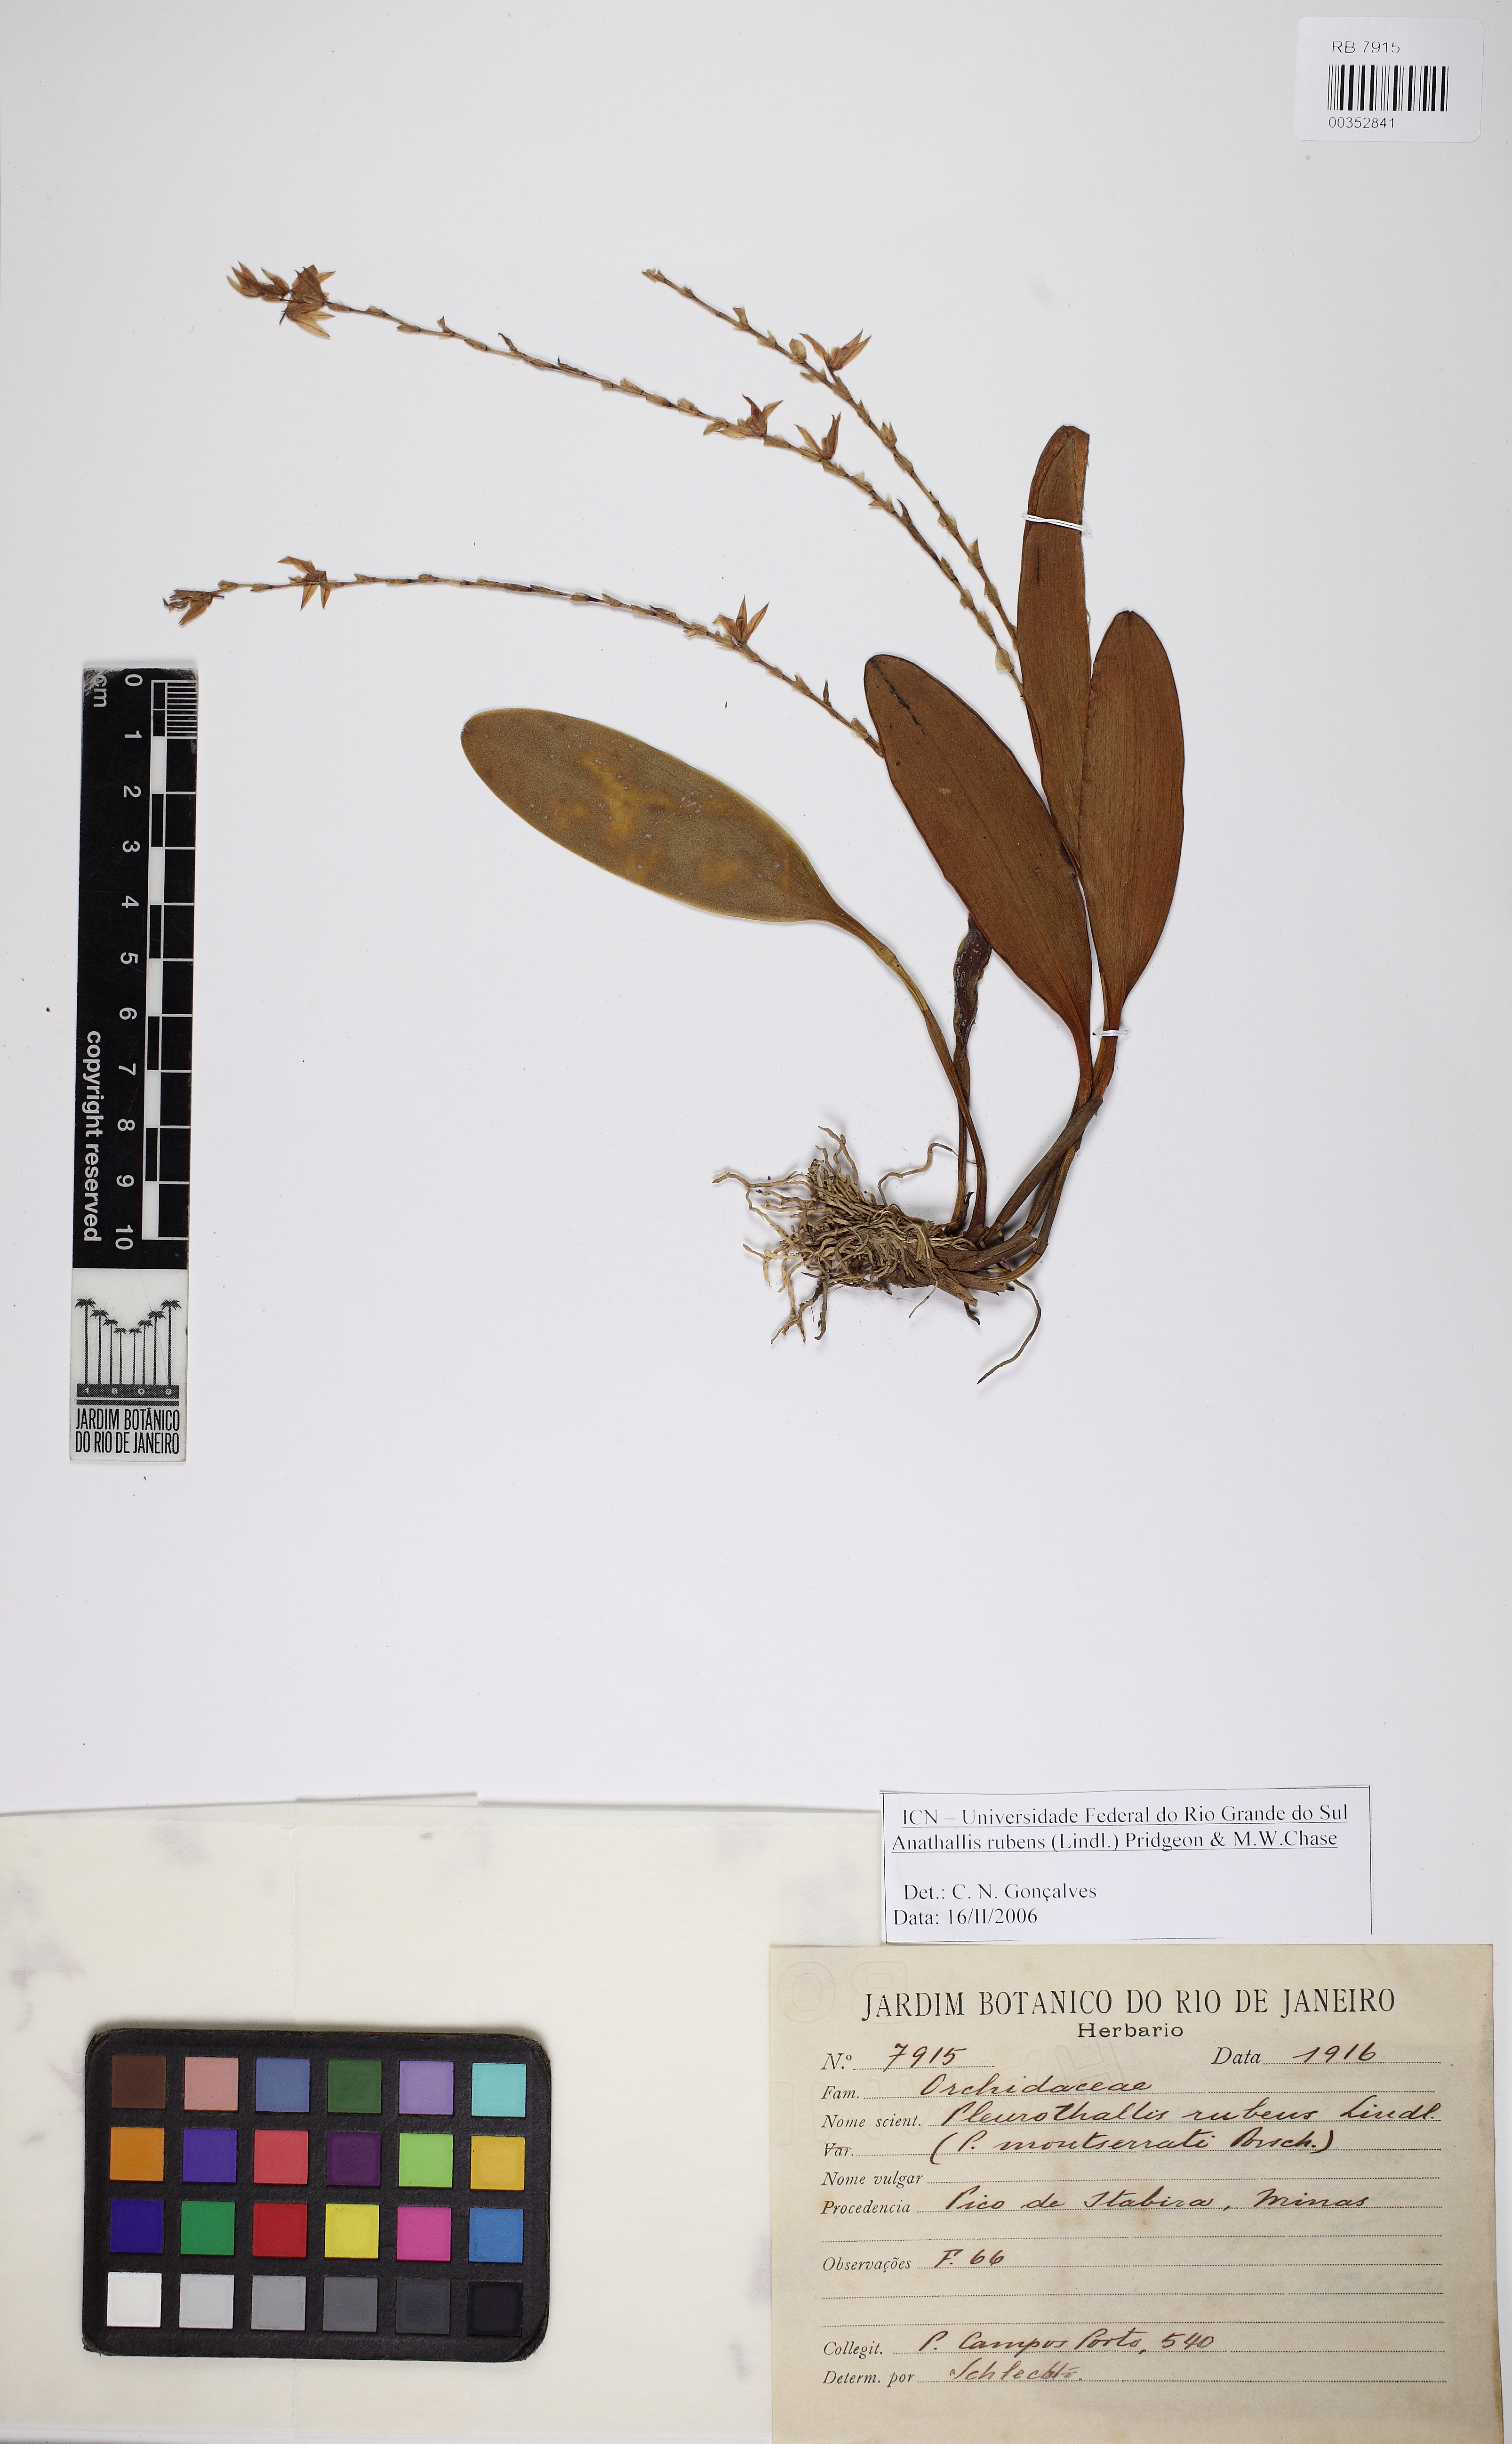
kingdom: Plantae
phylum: Tracheophyta
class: Liliopsida
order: Asparagales
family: Orchidaceae
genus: Stelis
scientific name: Stelis montserratii
